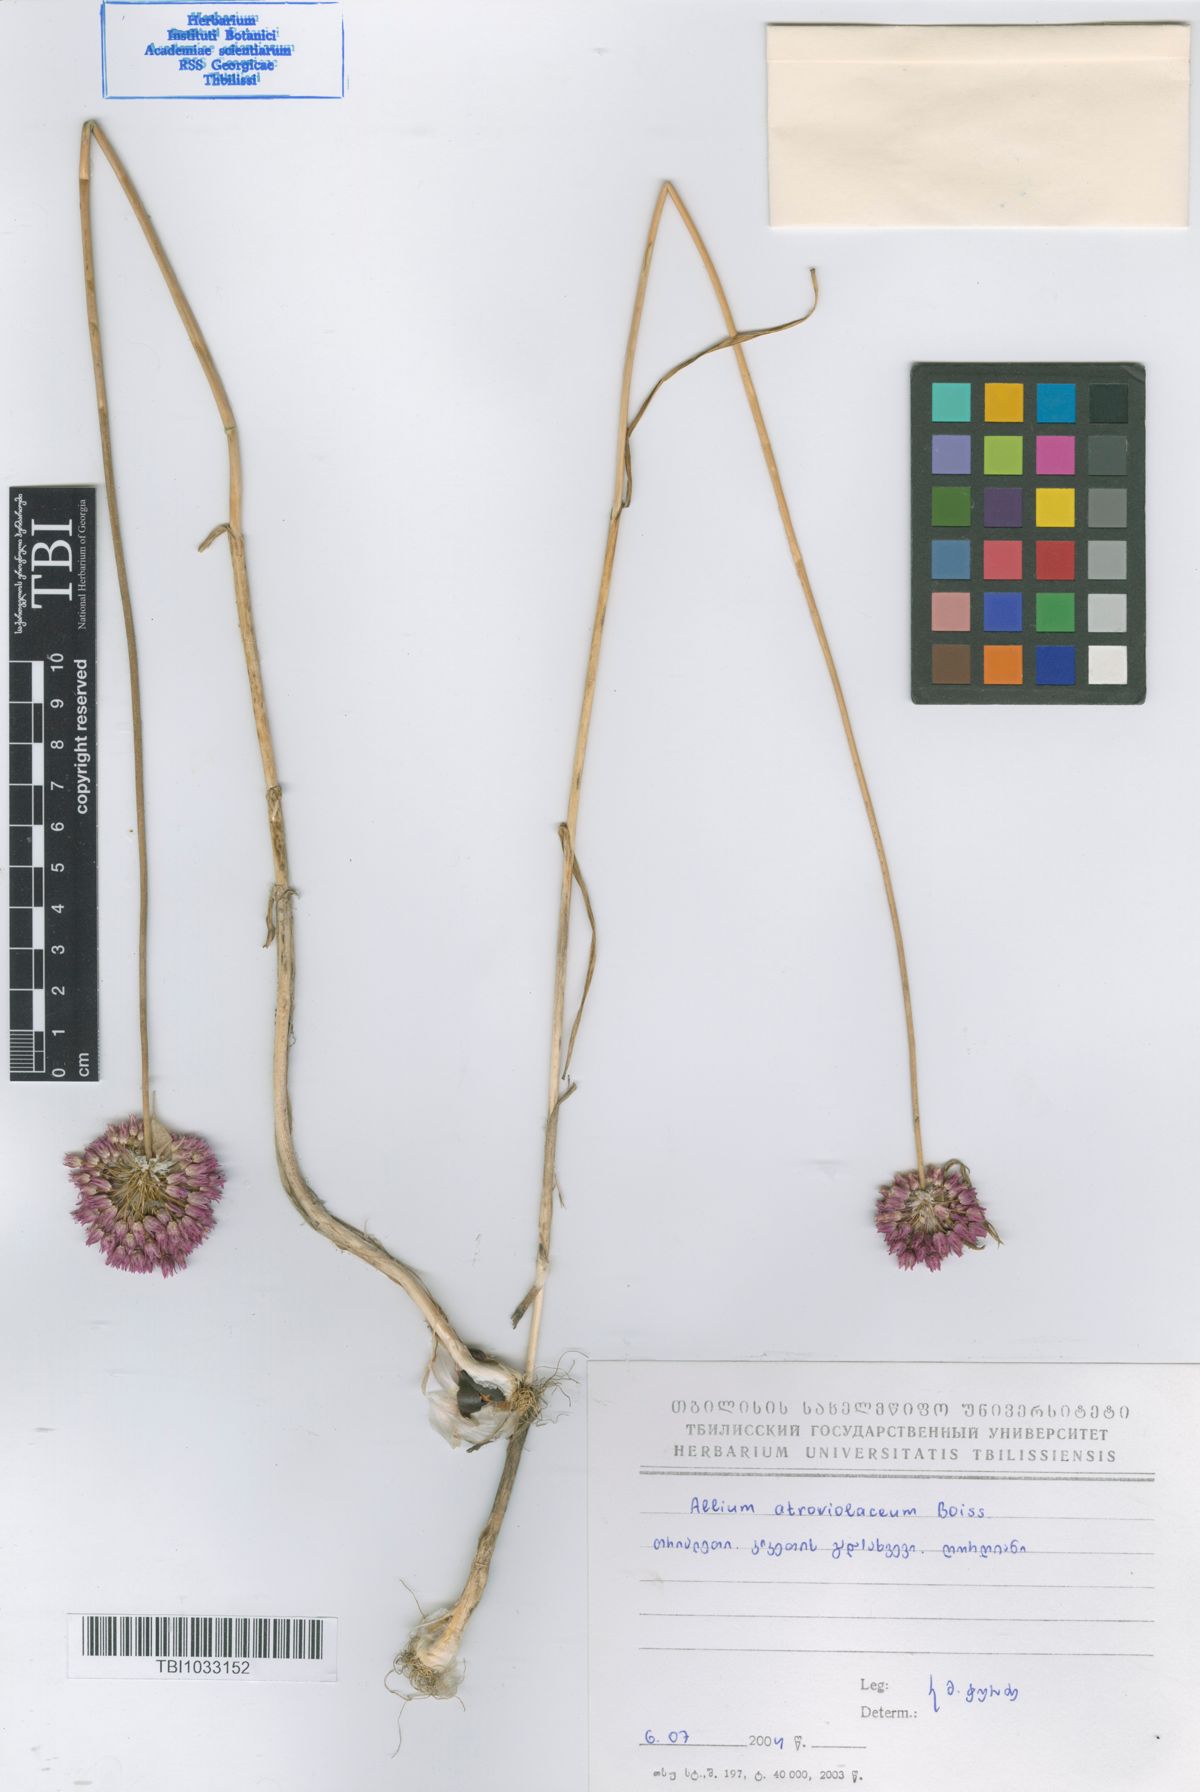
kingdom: Plantae
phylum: Tracheophyta
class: Liliopsida
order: Asparagales
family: Amaryllidaceae
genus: Allium
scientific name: Allium atroviolaceum
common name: Broadleaf wild leek
